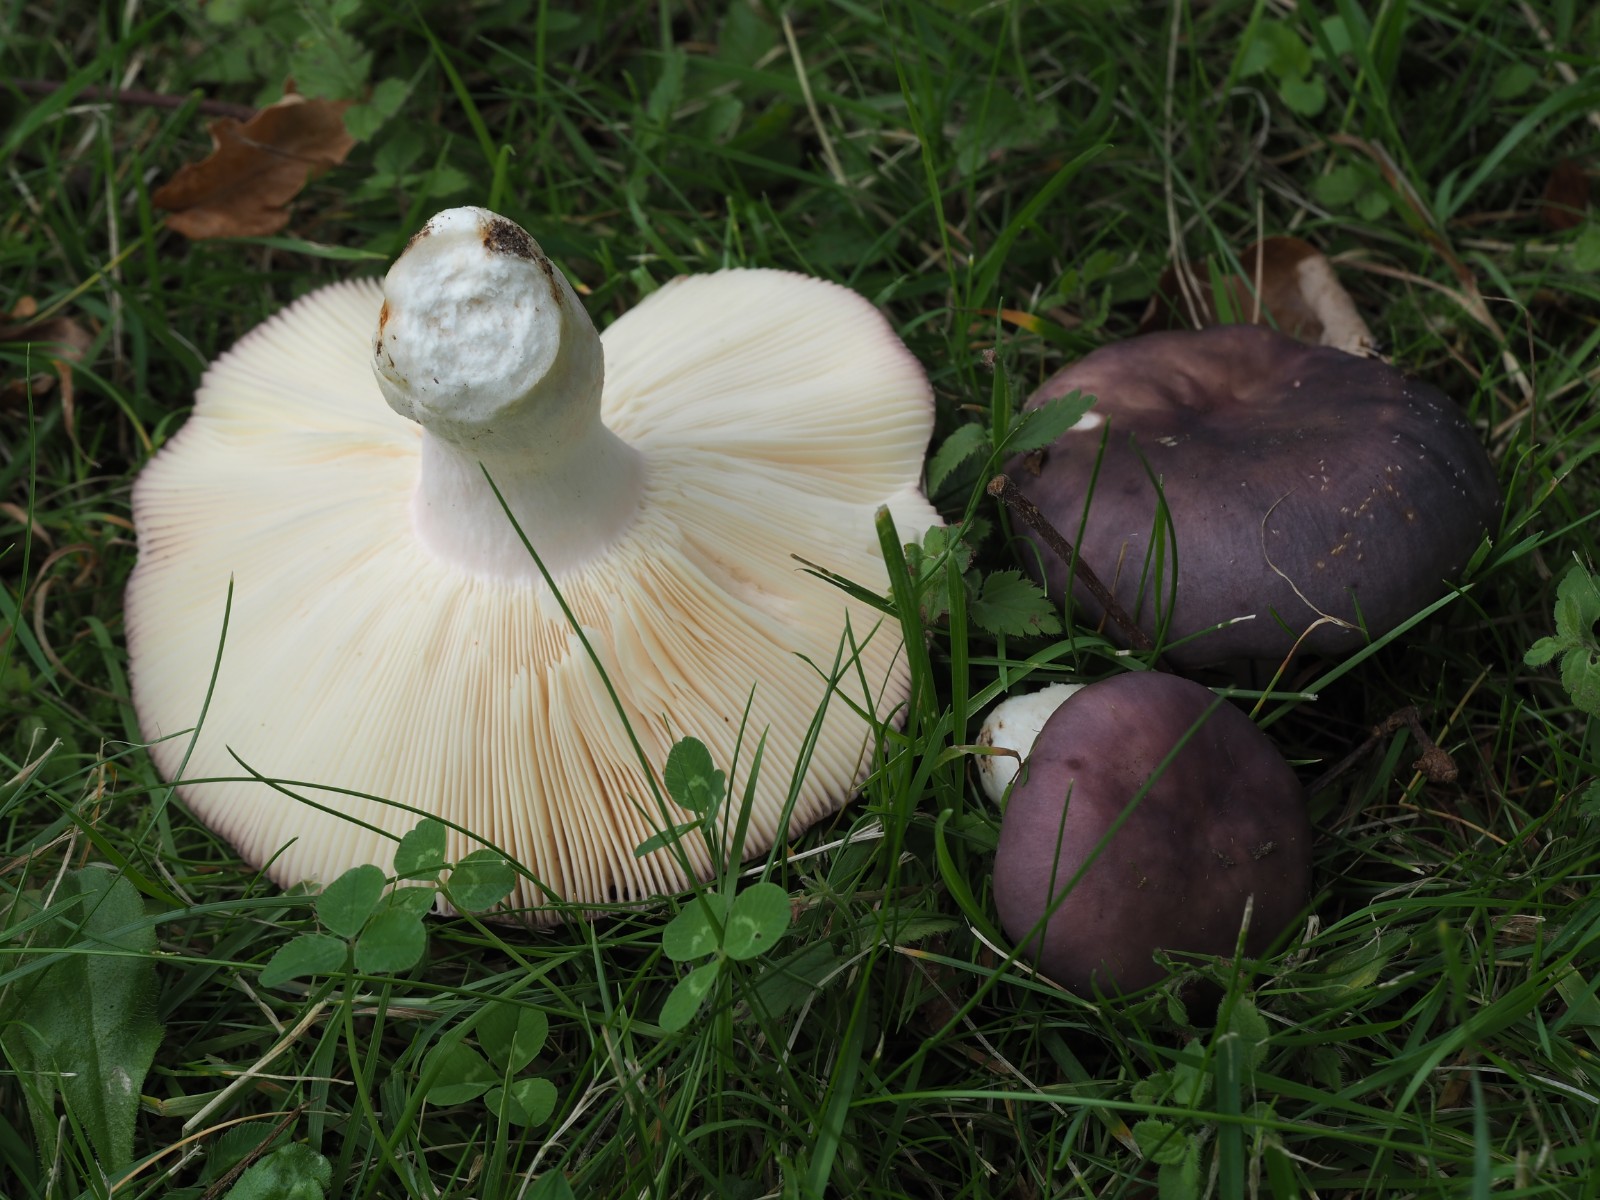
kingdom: Fungi
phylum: Basidiomycota
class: Agaricomycetes
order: Russulales
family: Russulaceae
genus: Russula
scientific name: Russula
